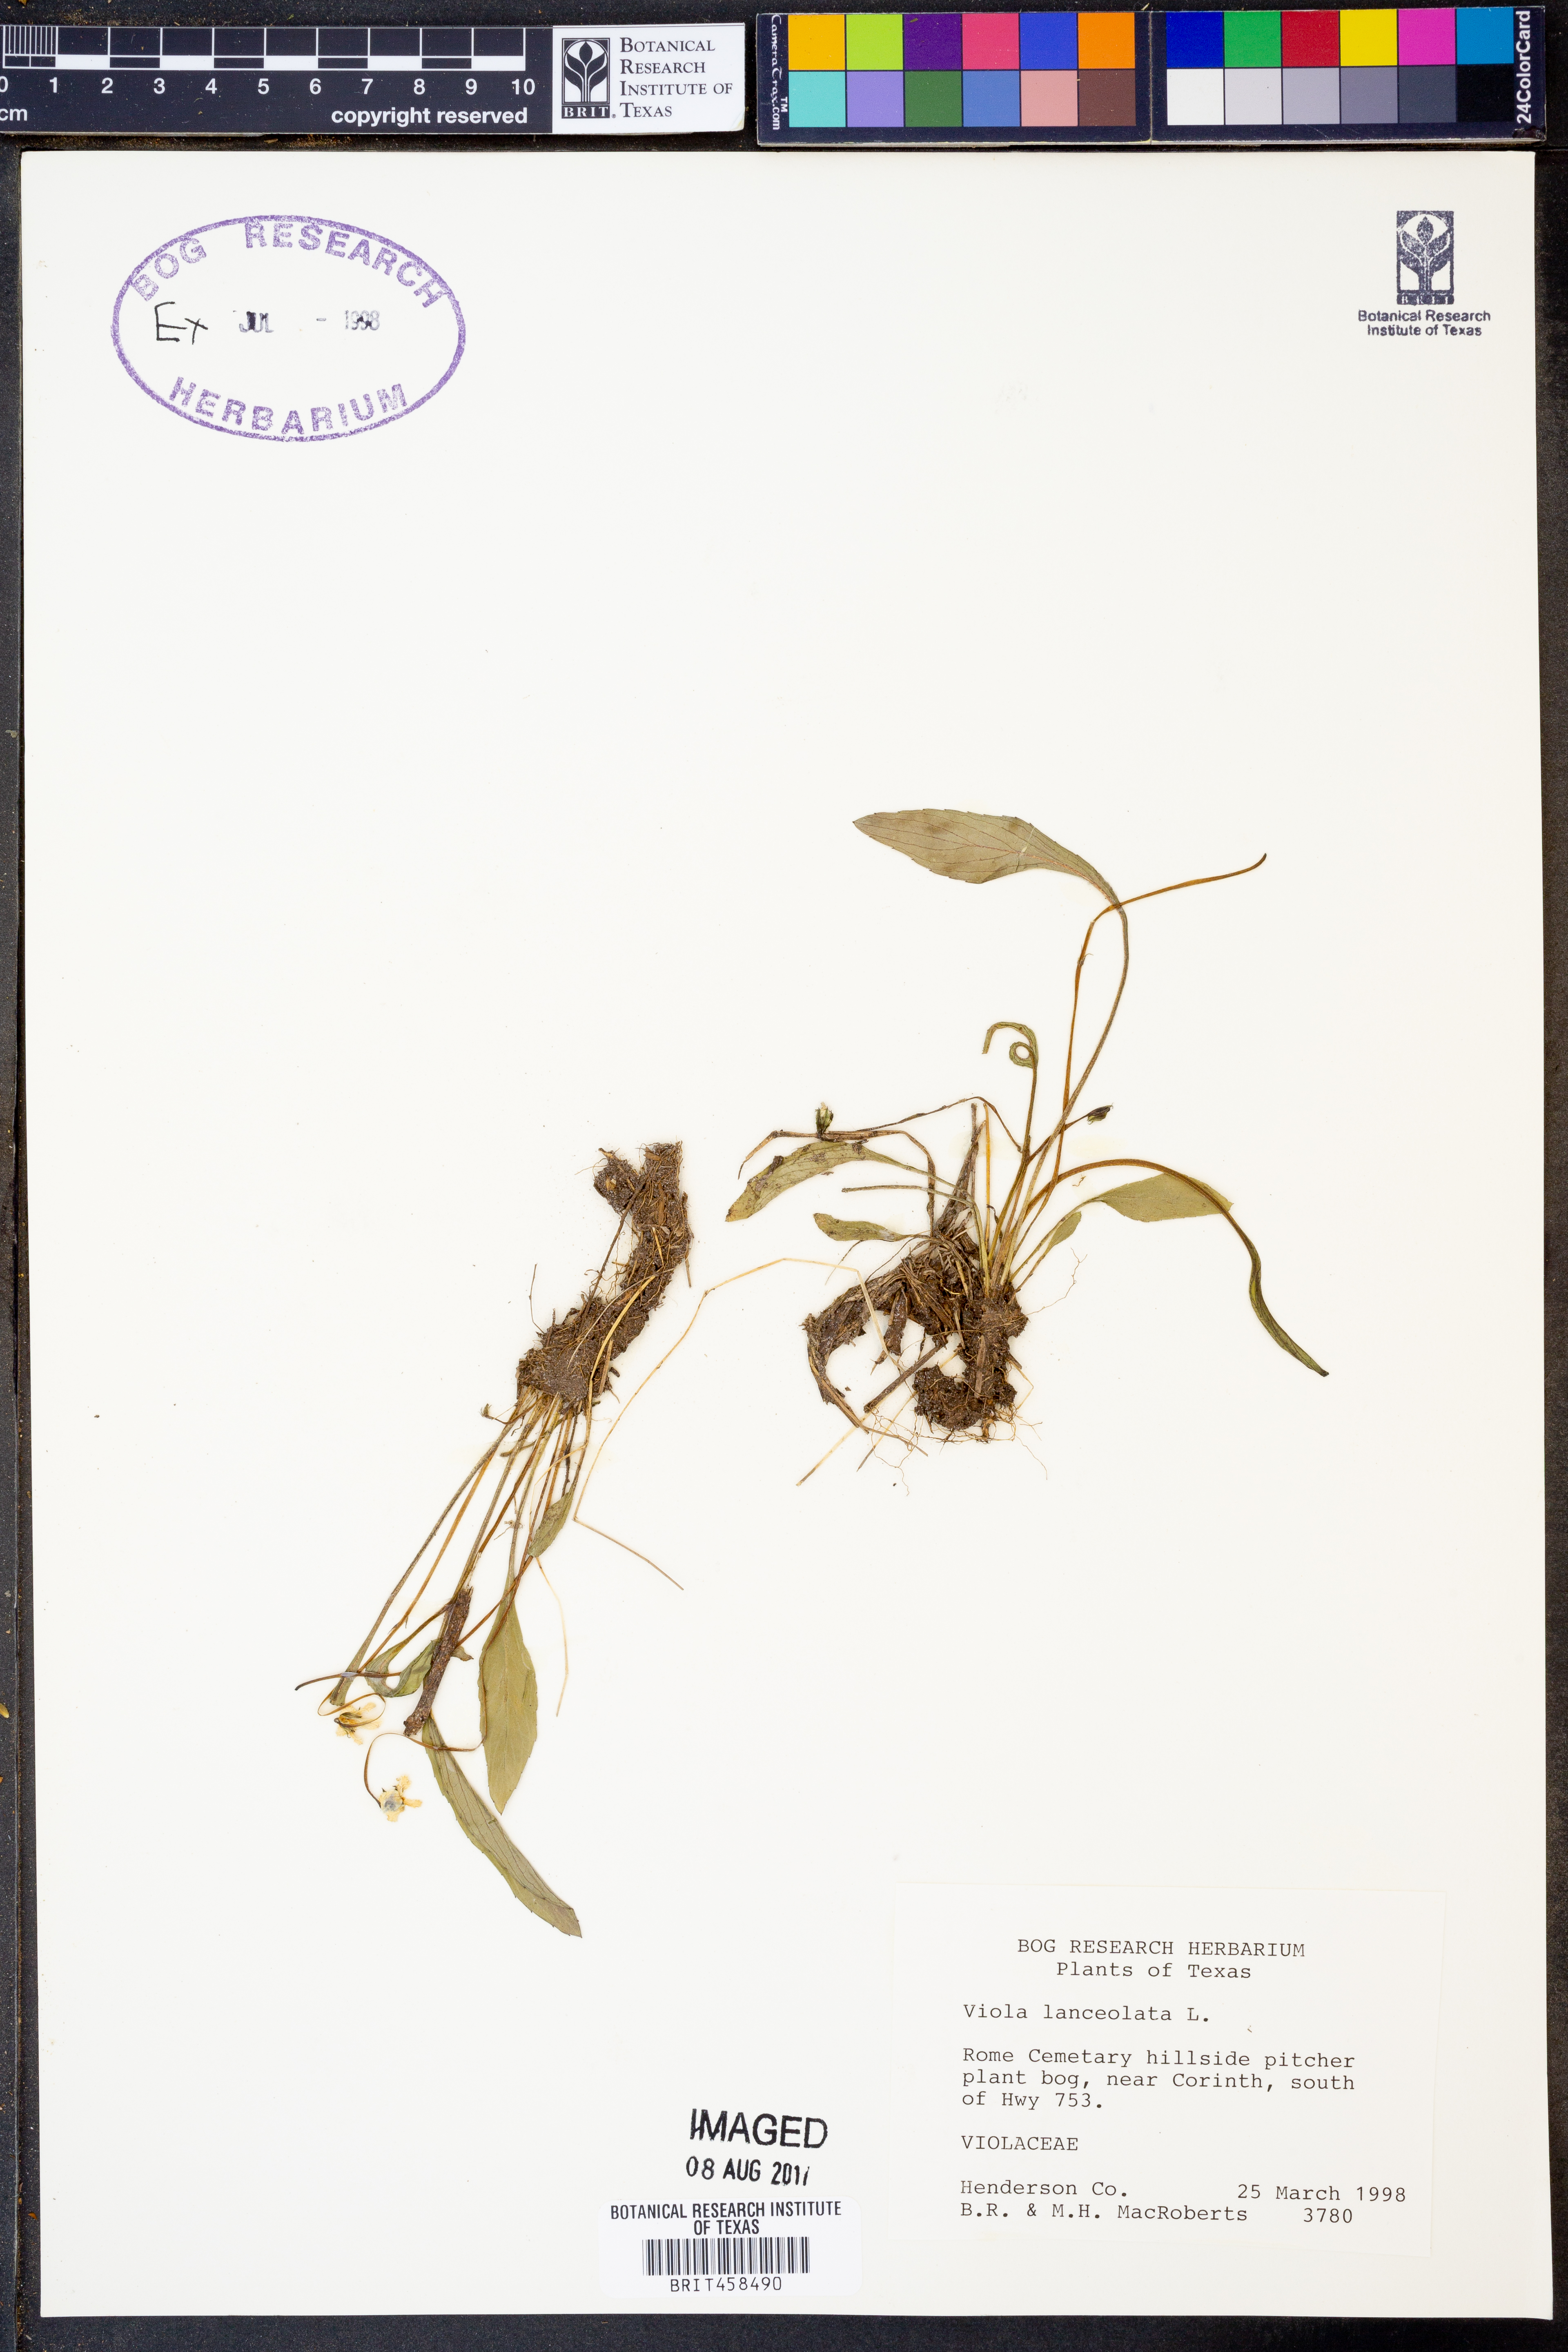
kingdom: Plantae
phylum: Tracheophyta
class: Magnoliopsida
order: Malpighiales
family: Violaceae
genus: Viola
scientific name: Viola lanceolata
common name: Bog white violet
